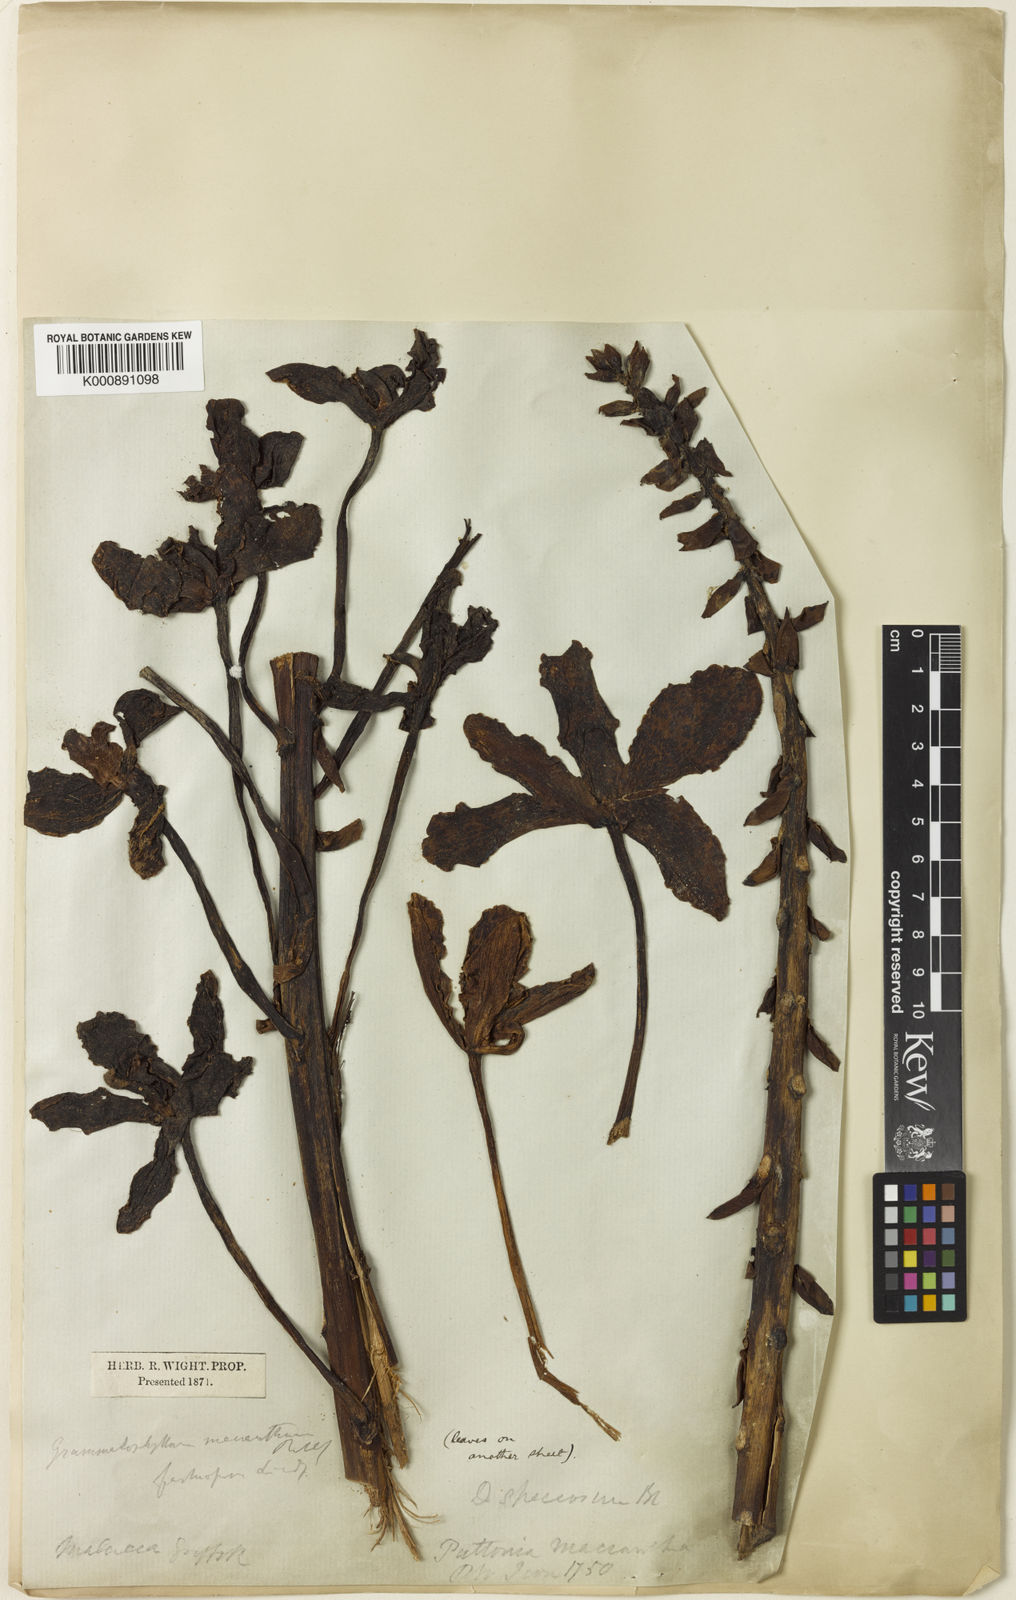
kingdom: Plantae
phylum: Tracheophyta
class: Liliopsida
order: Asparagales
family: Orchidaceae
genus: Grammatophyllum
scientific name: Grammatophyllum speciosum
